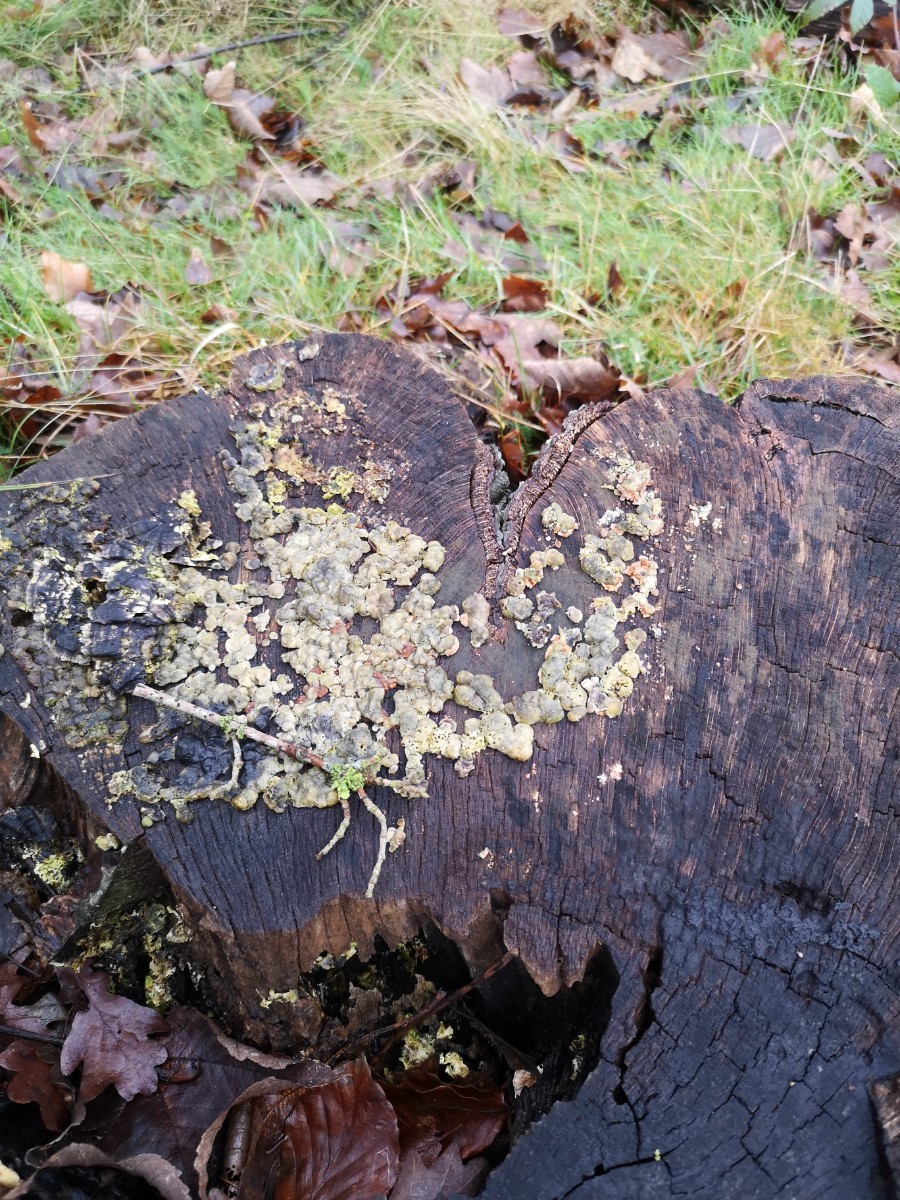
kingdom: Fungi
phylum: Basidiomycota
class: Agaricomycetes
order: Polyporales
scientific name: Polyporales
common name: poresvampordenen
